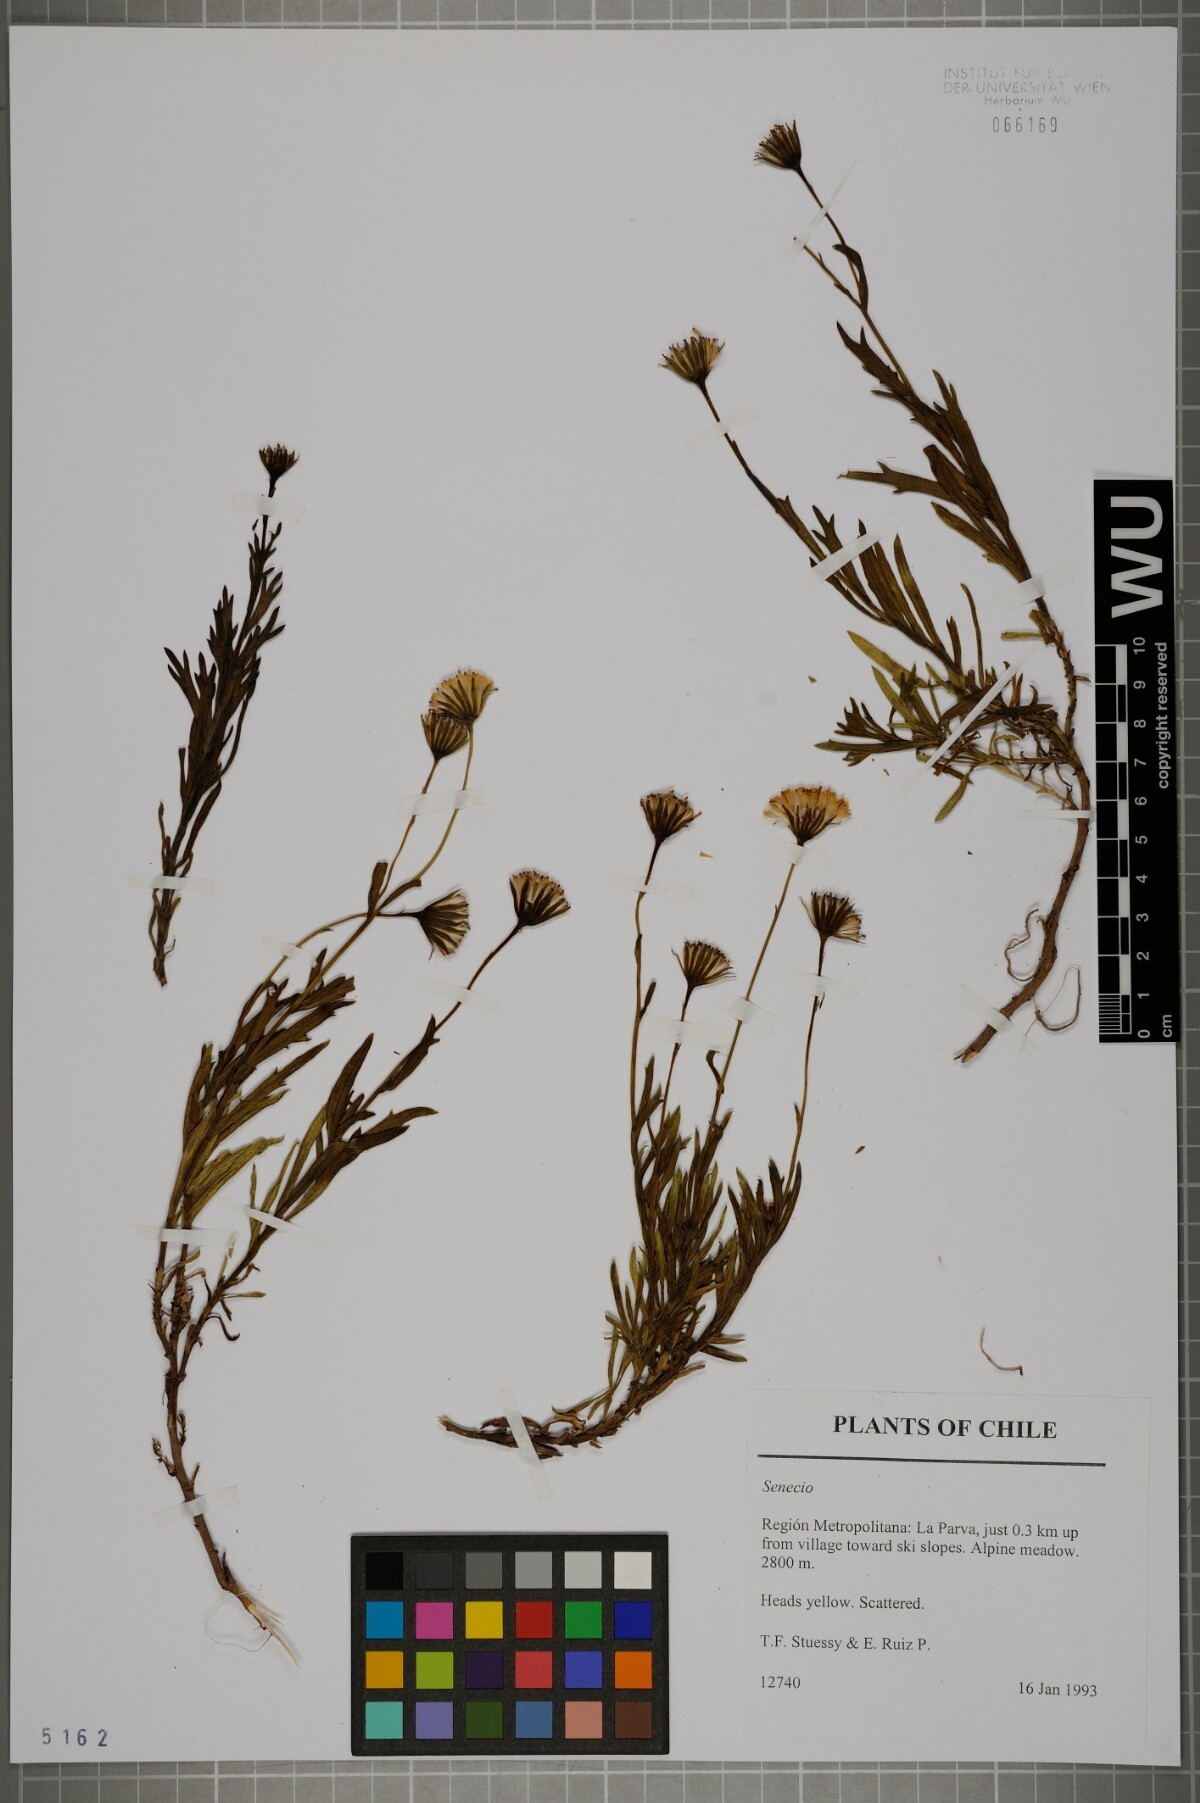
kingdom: Plantae
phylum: Tracheophyta
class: Magnoliopsida
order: Asterales
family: Asteraceae
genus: Senecio
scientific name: Senecio
